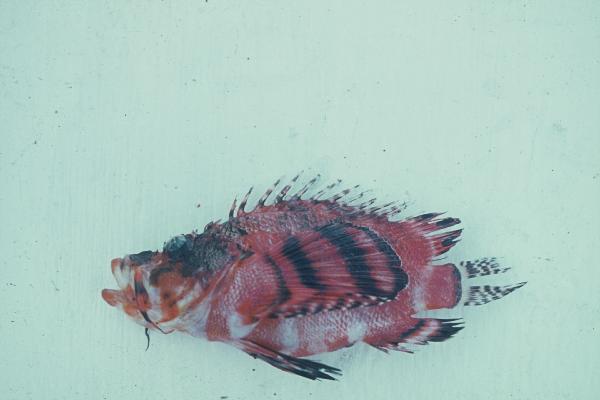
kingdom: Animalia
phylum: Chordata
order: Scorpaeniformes
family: Scorpaenidae
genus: Dendrochirus
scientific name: Dendrochirus zebra
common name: Zebra lionfish
